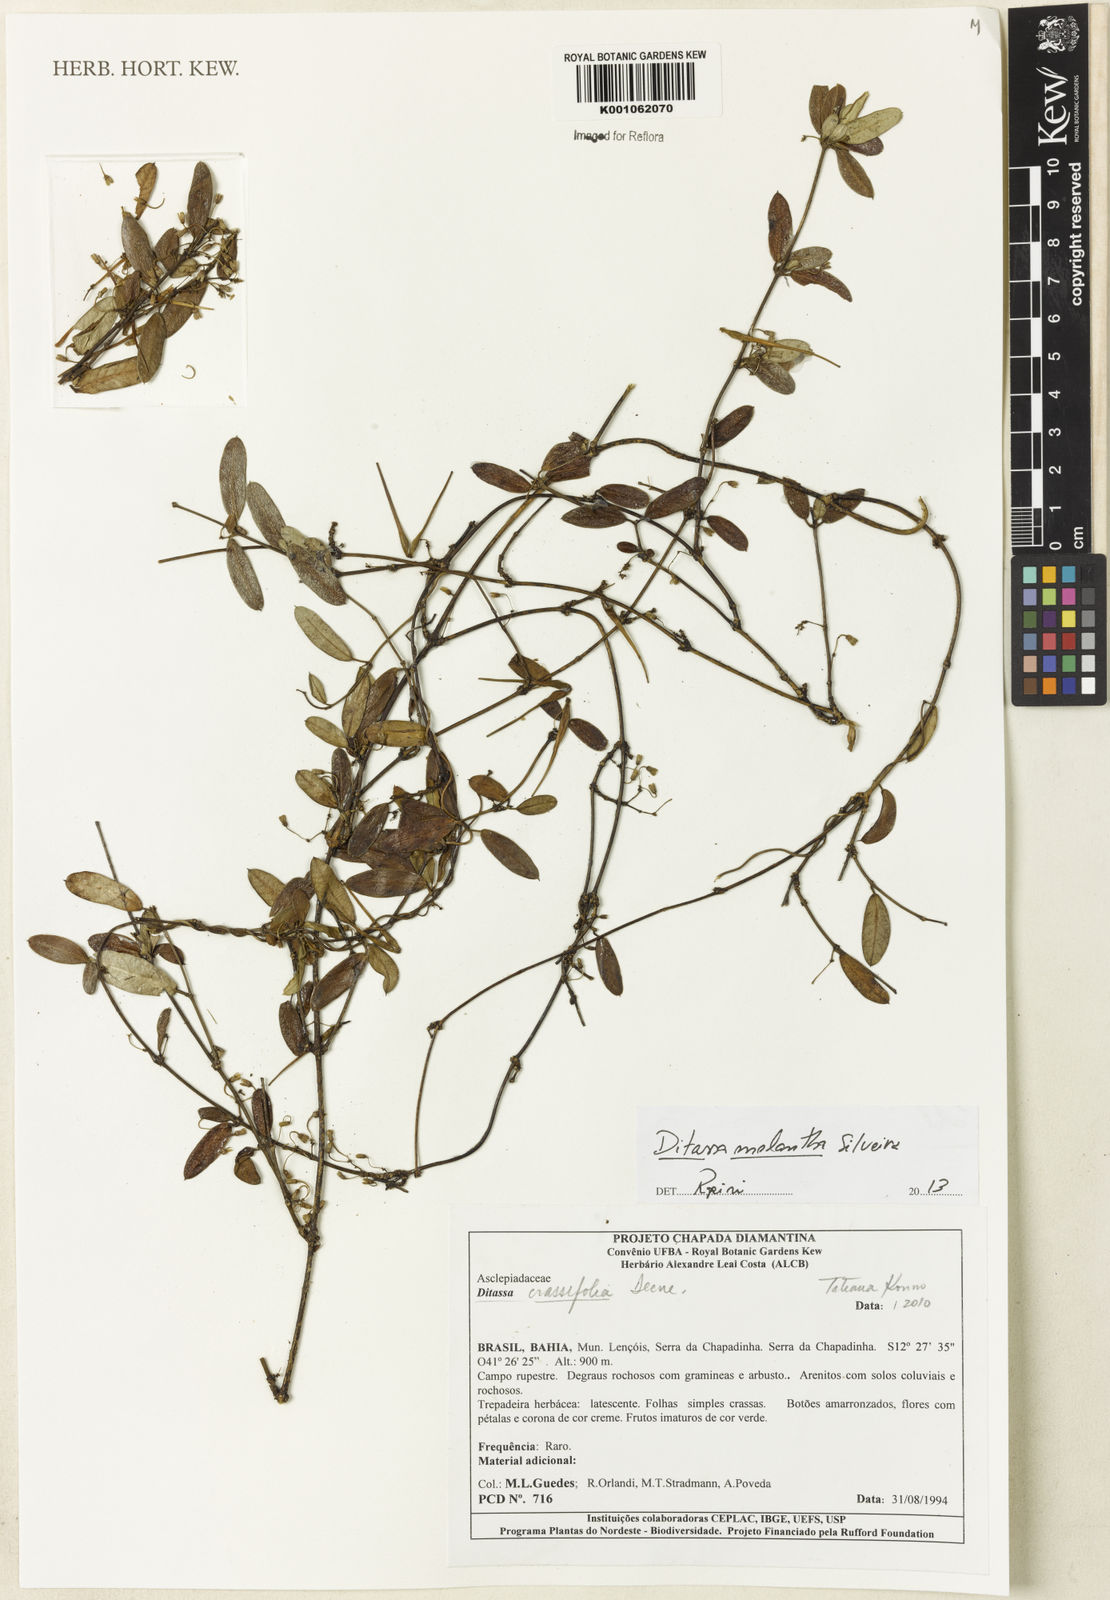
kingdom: Plantae
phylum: Tracheophyta
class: Magnoliopsida
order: Gentianales
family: Apocynaceae
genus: Macroditassa
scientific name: Macroditassa melantha
